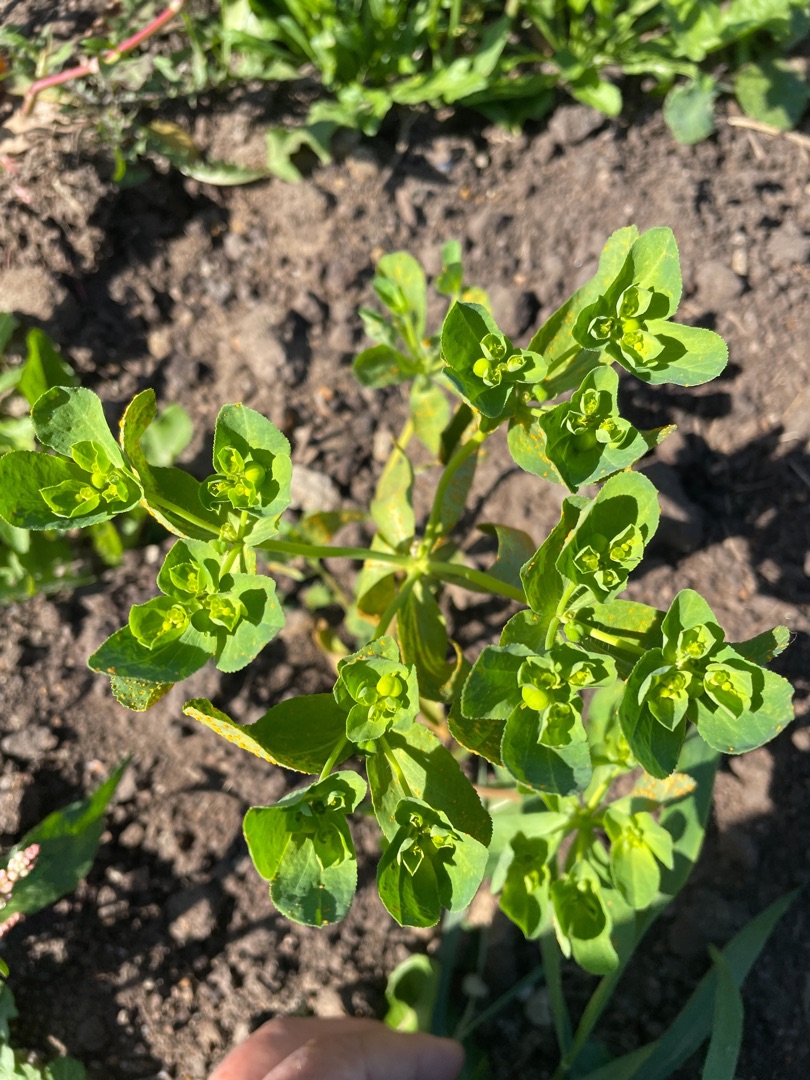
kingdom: Plantae
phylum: Tracheophyta
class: Magnoliopsida
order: Malpighiales
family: Euphorbiaceae
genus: Euphorbia
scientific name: Euphorbia helioscopia
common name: Skærm-vortemælk
